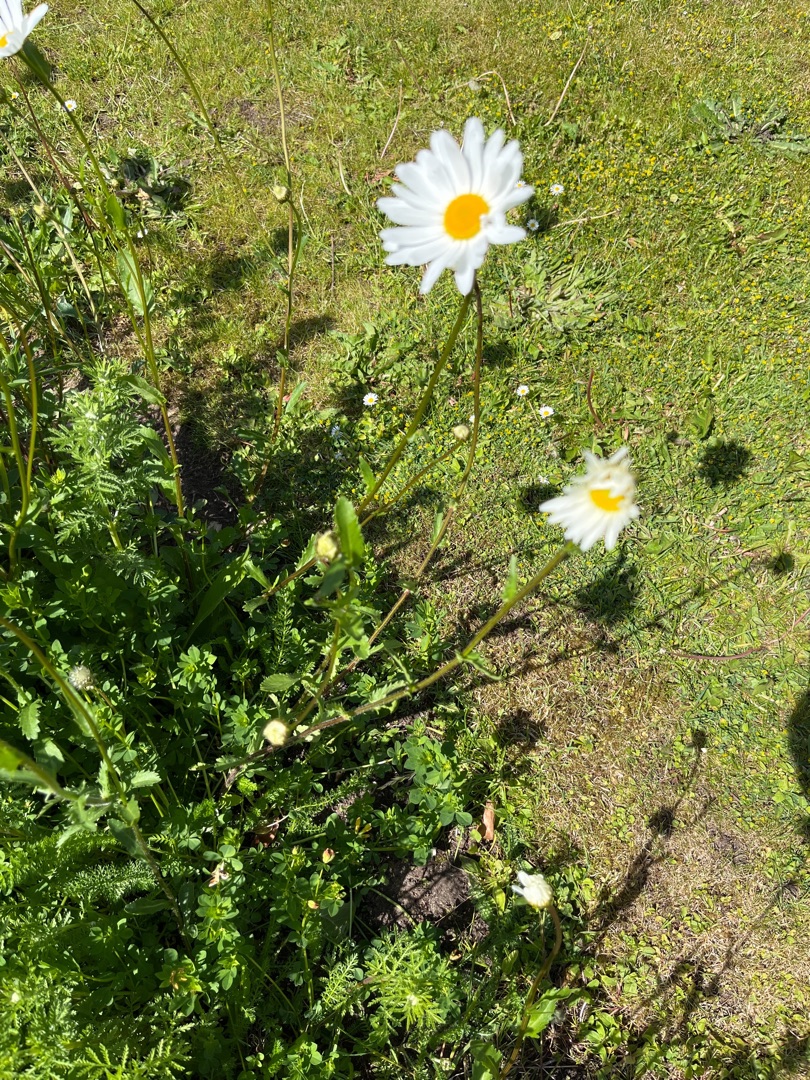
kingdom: Plantae
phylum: Tracheophyta
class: Magnoliopsida
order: Asterales
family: Asteraceae
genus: Leucanthemum
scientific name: Leucanthemum vulgare
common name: Hvid okseøje
